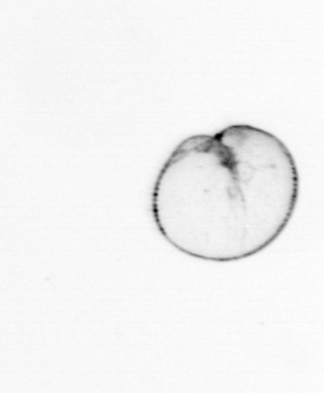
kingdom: Chromista
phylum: Myzozoa
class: Dinophyceae
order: Noctilucales
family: Noctilucaceae
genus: Noctiluca
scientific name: Noctiluca scintillans
